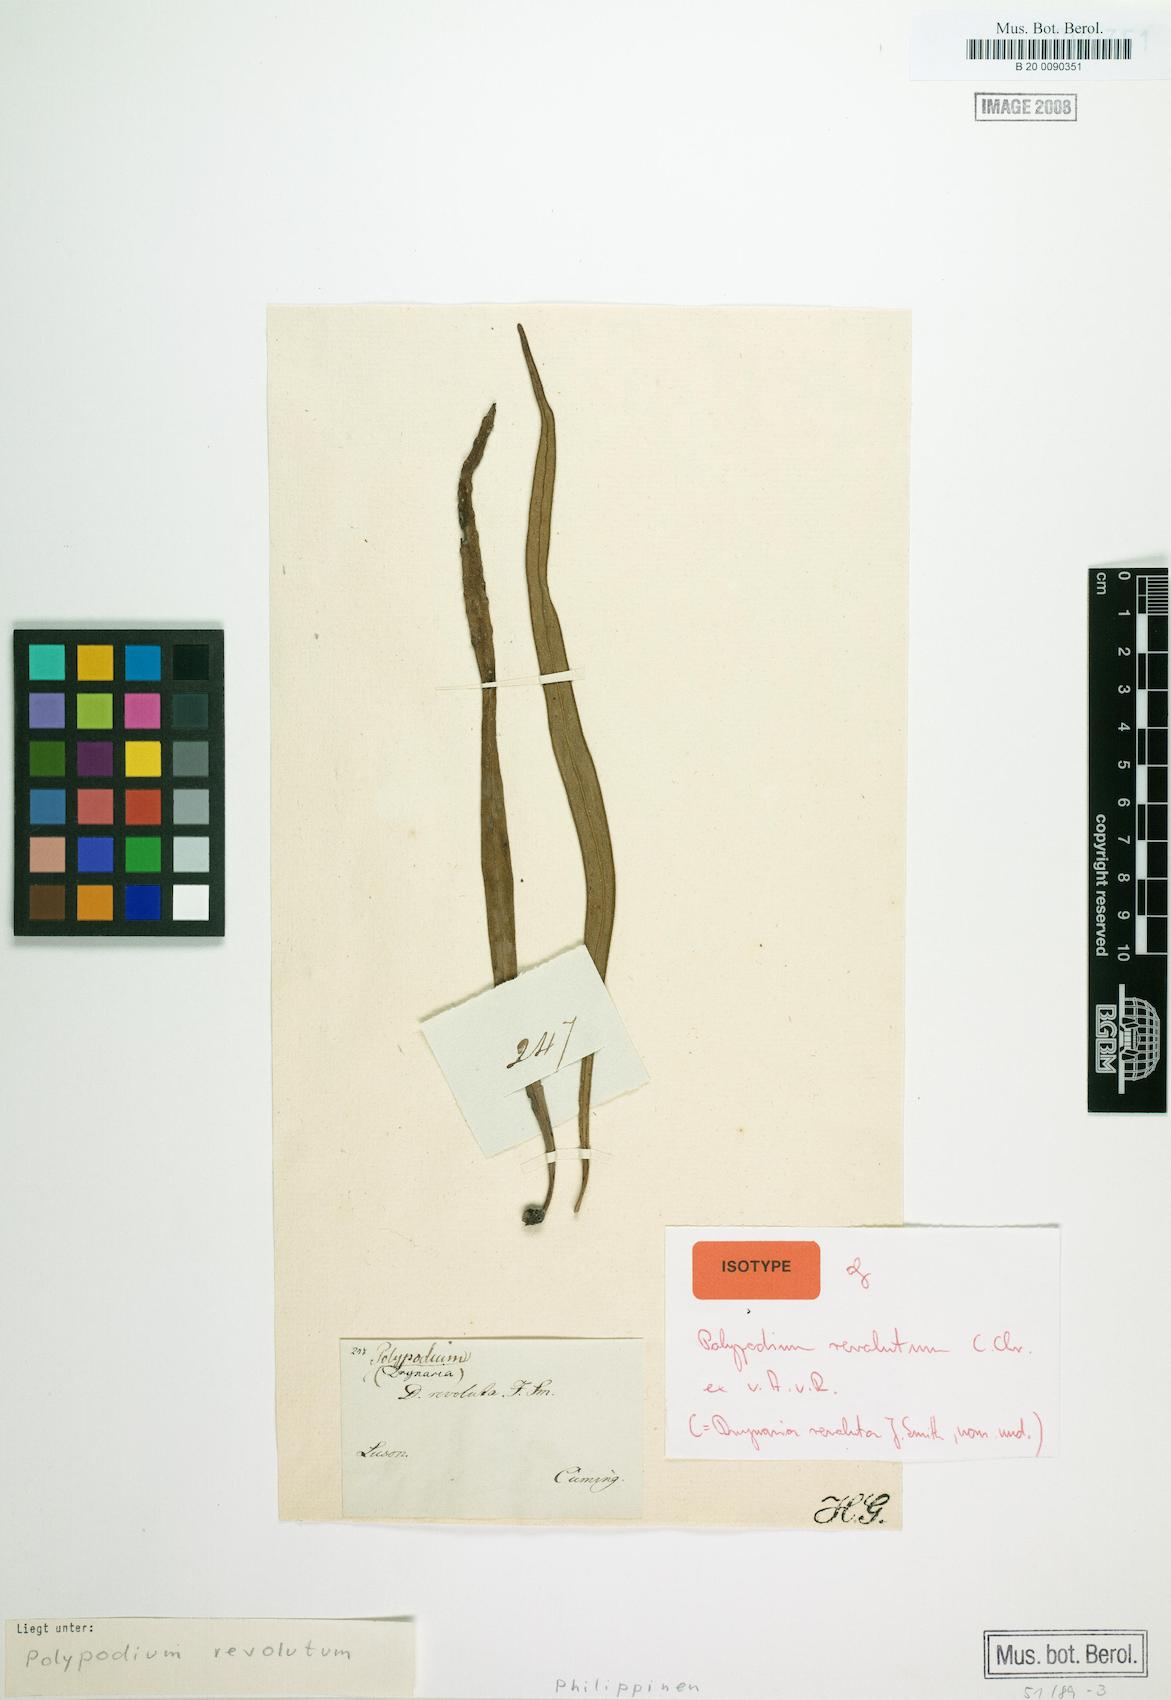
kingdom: Plantae
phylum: Tracheophyta
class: Polypodiopsida
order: Polypodiales
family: Polypodiaceae
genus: Lepisorus
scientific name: Lepisorus longifolius
